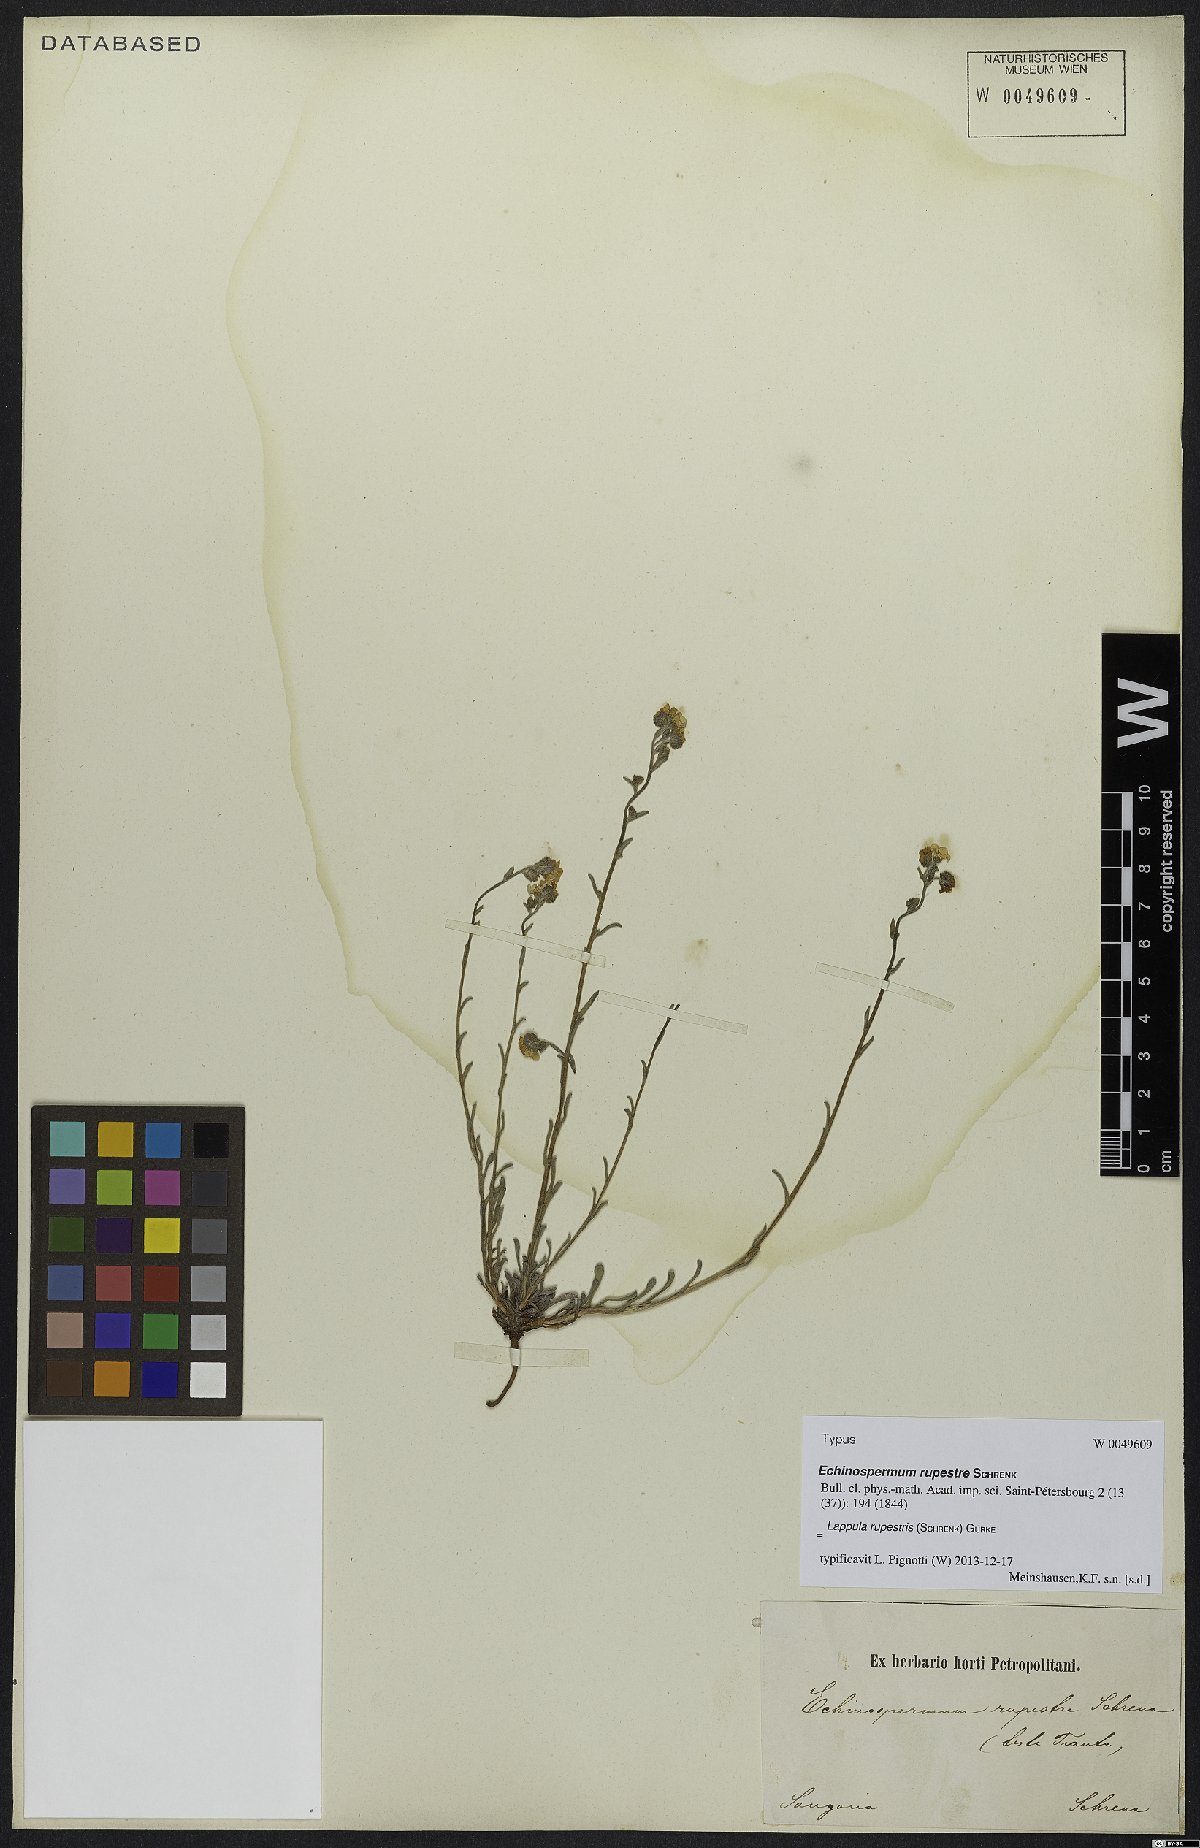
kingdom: Plantae
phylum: Tracheophyta
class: Magnoliopsida
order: Boraginales
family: Boraginaceae
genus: Lappula
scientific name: Lappula rupestris
